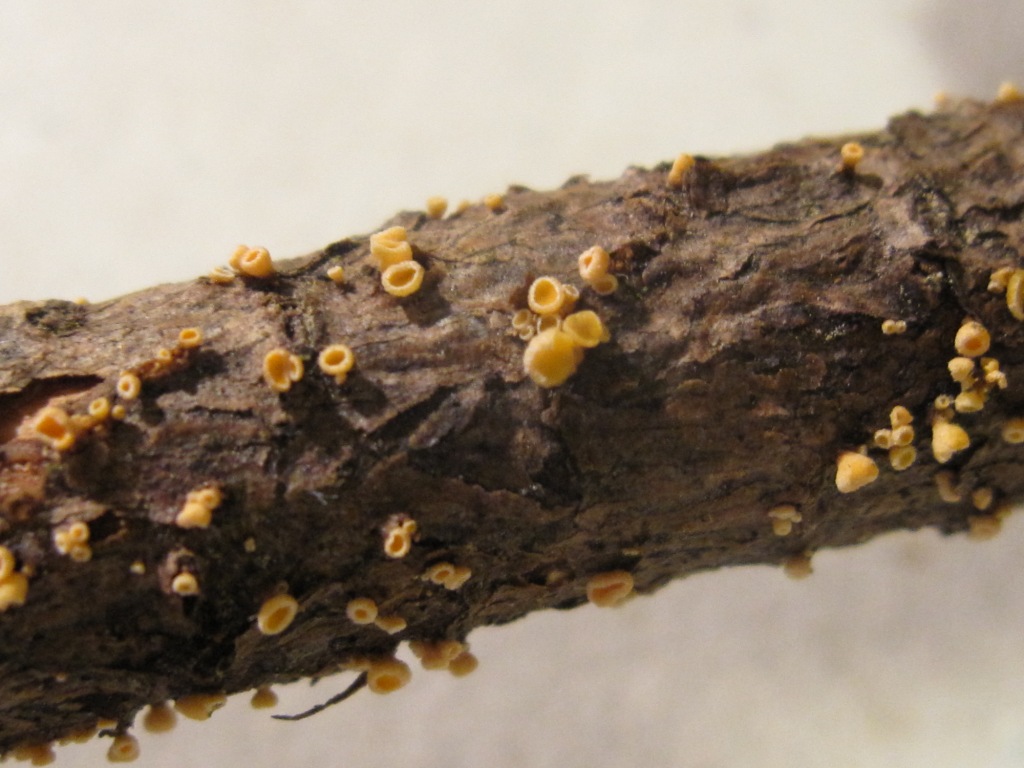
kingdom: Fungi
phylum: Ascomycota
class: Leotiomycetes
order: Helotiales
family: Lachnaceae
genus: Lachnellula
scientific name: Lachnellula subtilissima
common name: gran-frynseskive
